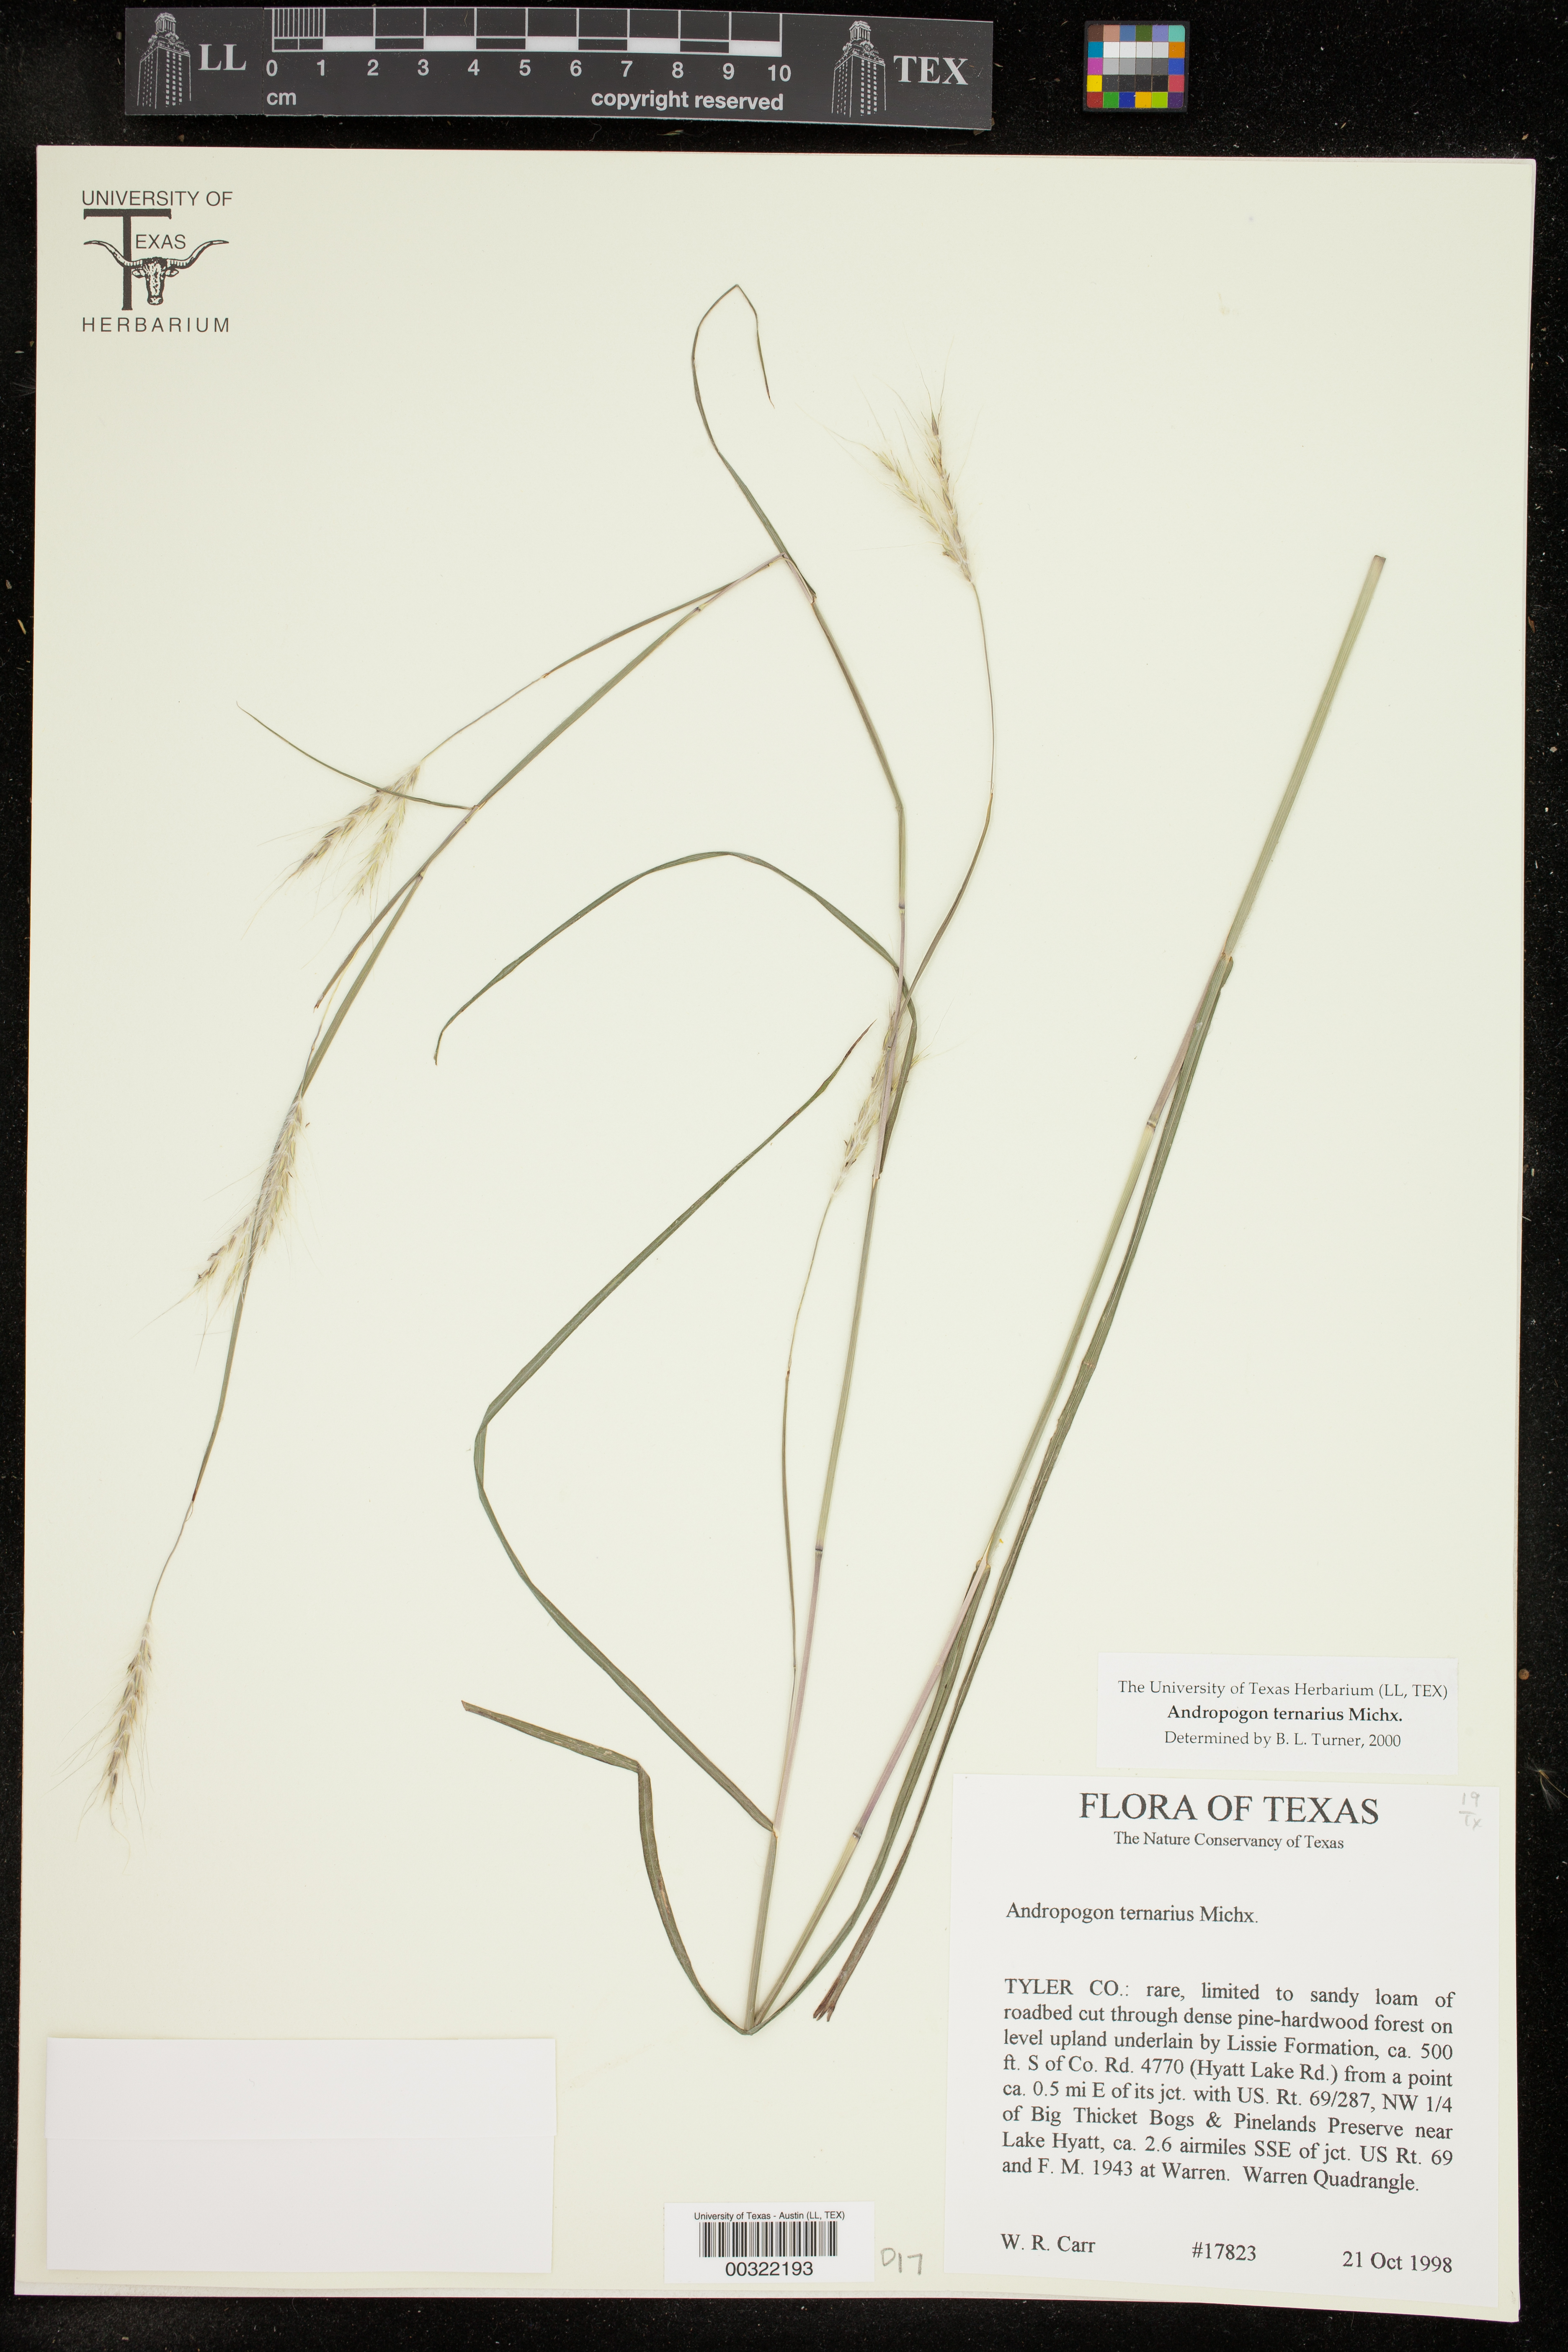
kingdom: Plantae
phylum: Tracheophyta
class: Liliopsida
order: Poales
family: Poaceae
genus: Andropogon
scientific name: Andropogon ternarius
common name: Split bluestem
